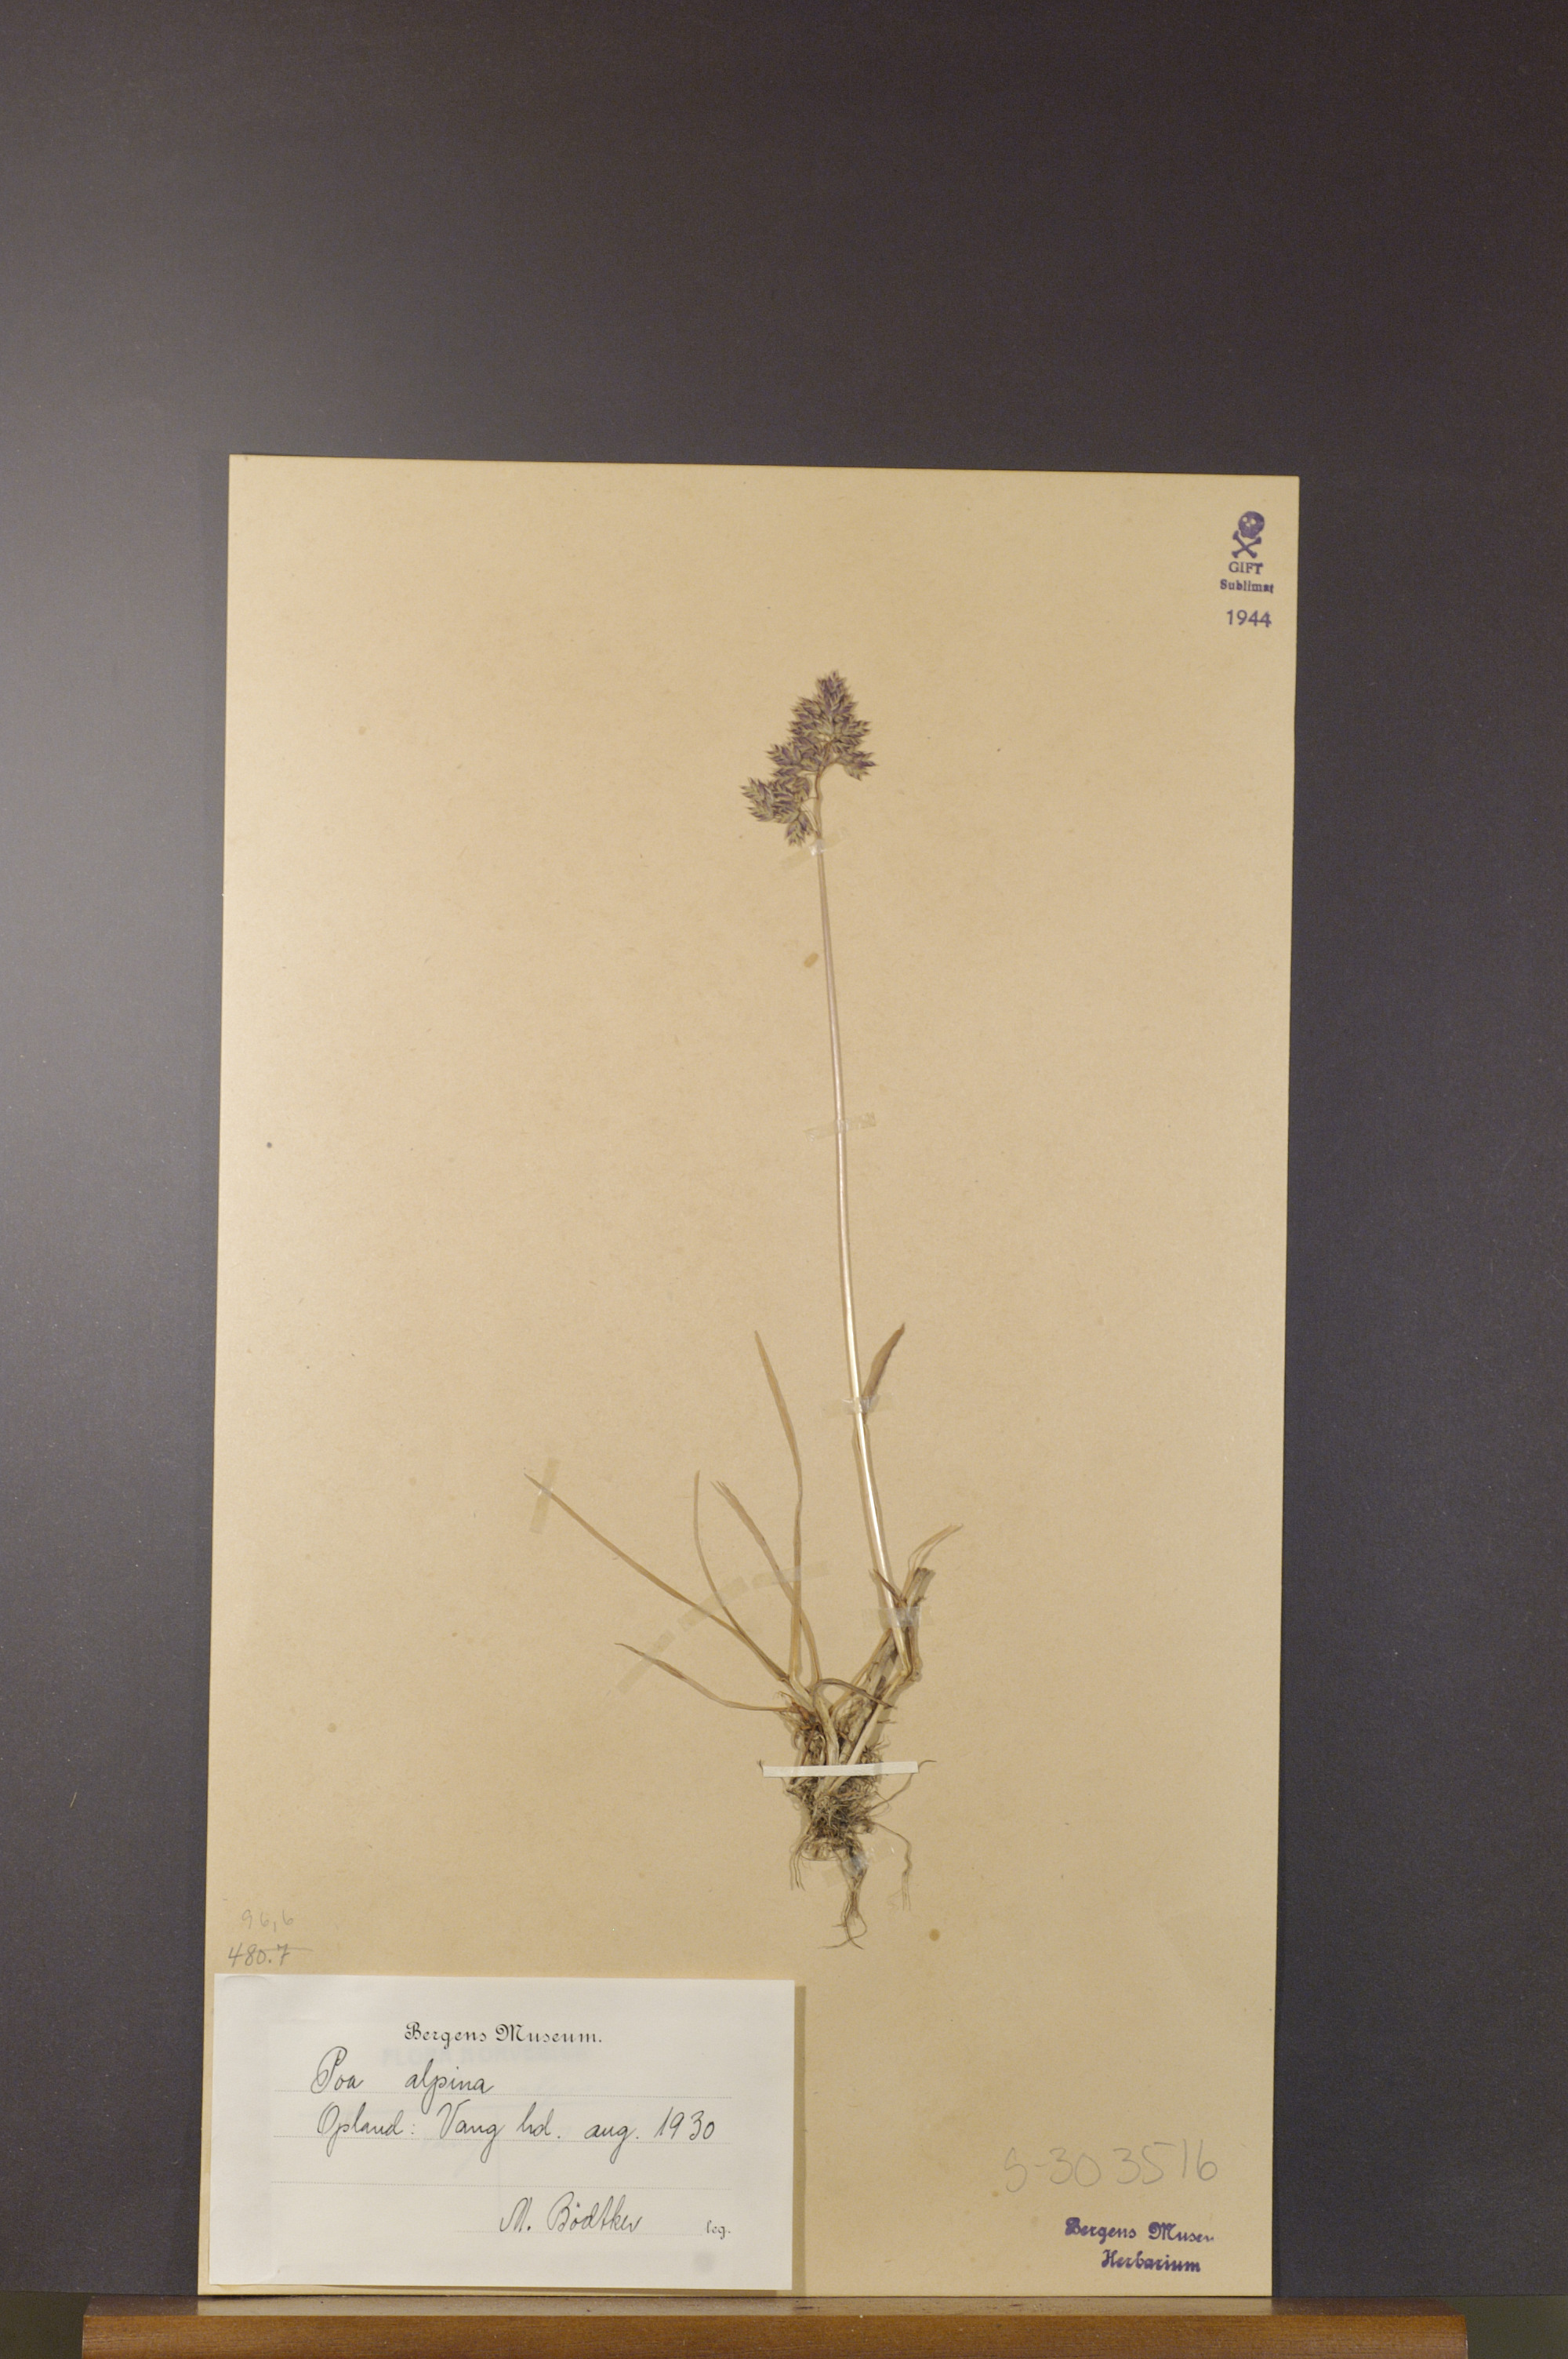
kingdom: Plantae
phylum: Tracheophyta
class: Liliopsida
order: Poales
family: Poaceae
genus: Poa
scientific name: Poa alpina
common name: Alpine bluegrass
